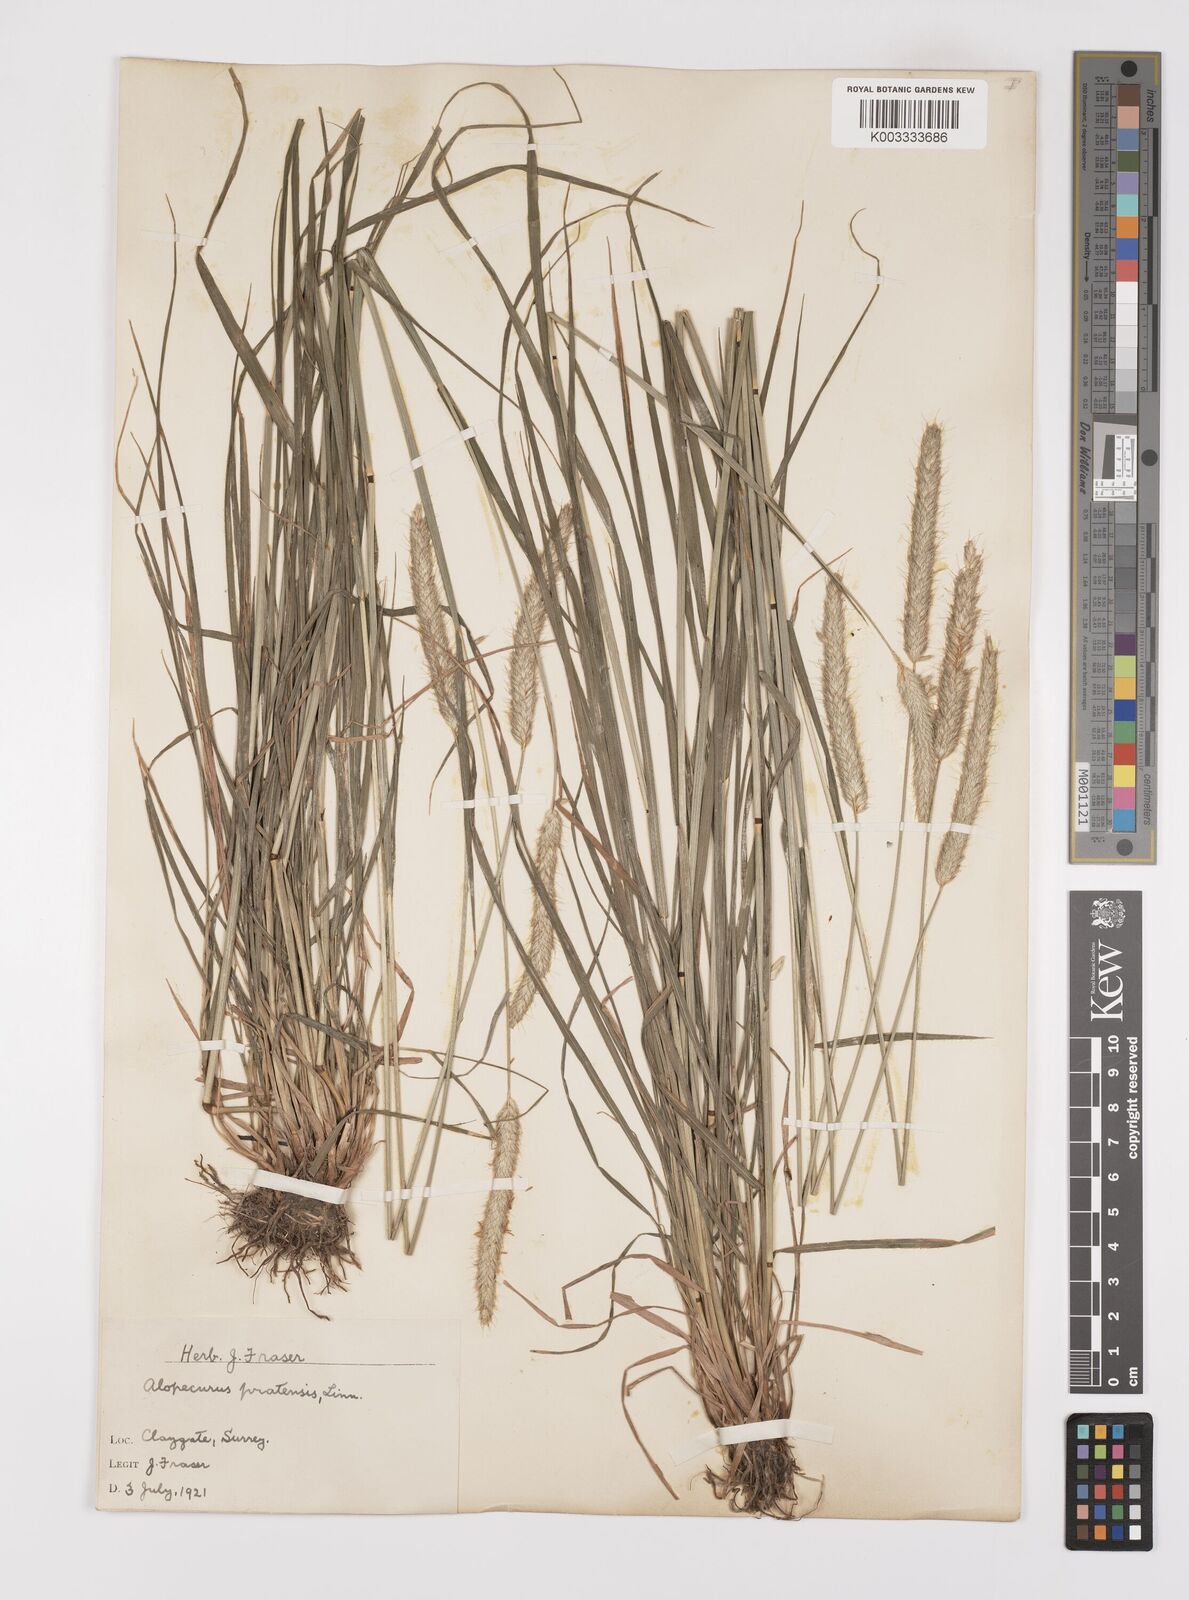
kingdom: Plantae
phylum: Tracheophyta
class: Liliopsida
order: Poales
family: Poaceae
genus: Alopecurus
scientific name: Alopecurus pratensis
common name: Meadow foxtail
